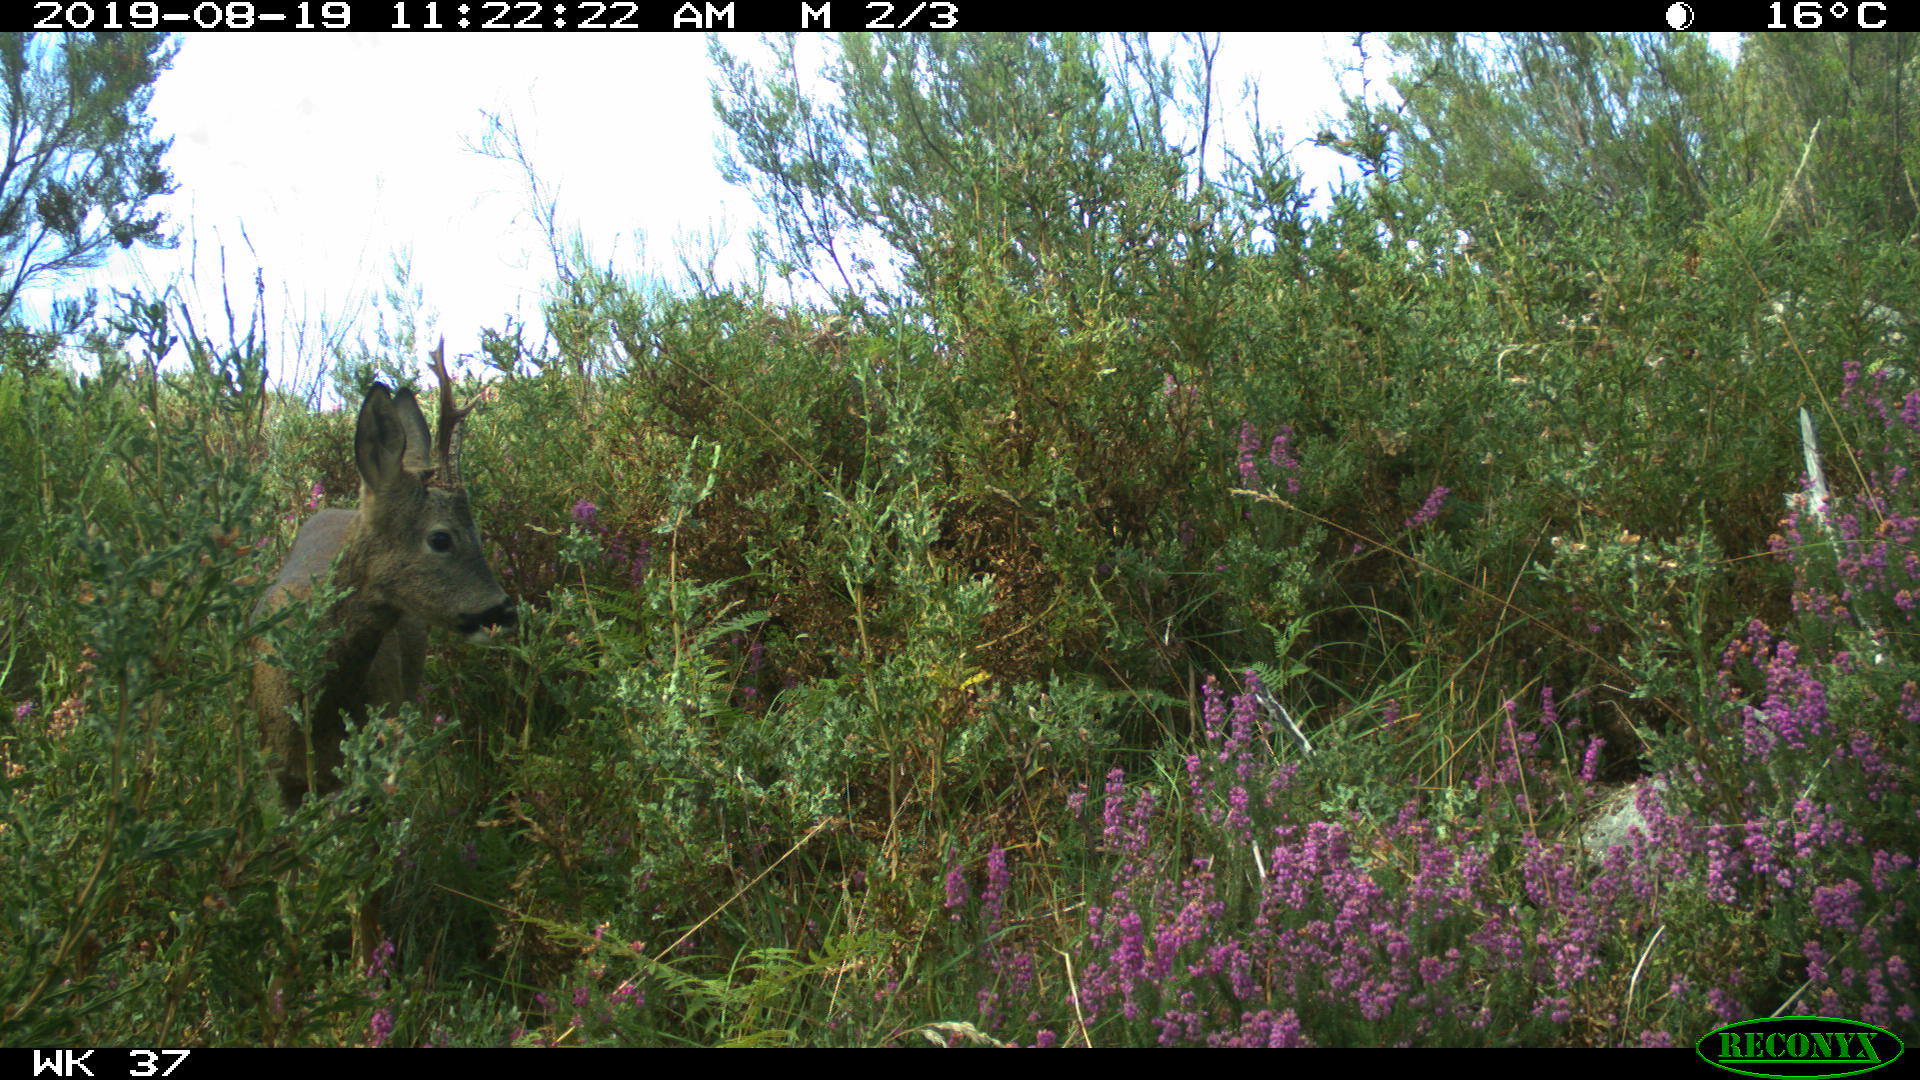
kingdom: Animalia
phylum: Chordata
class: Mammalia
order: Artiodactyla
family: Cervidae
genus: Capreolus
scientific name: Capreolus capreolus
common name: Western roe deer
